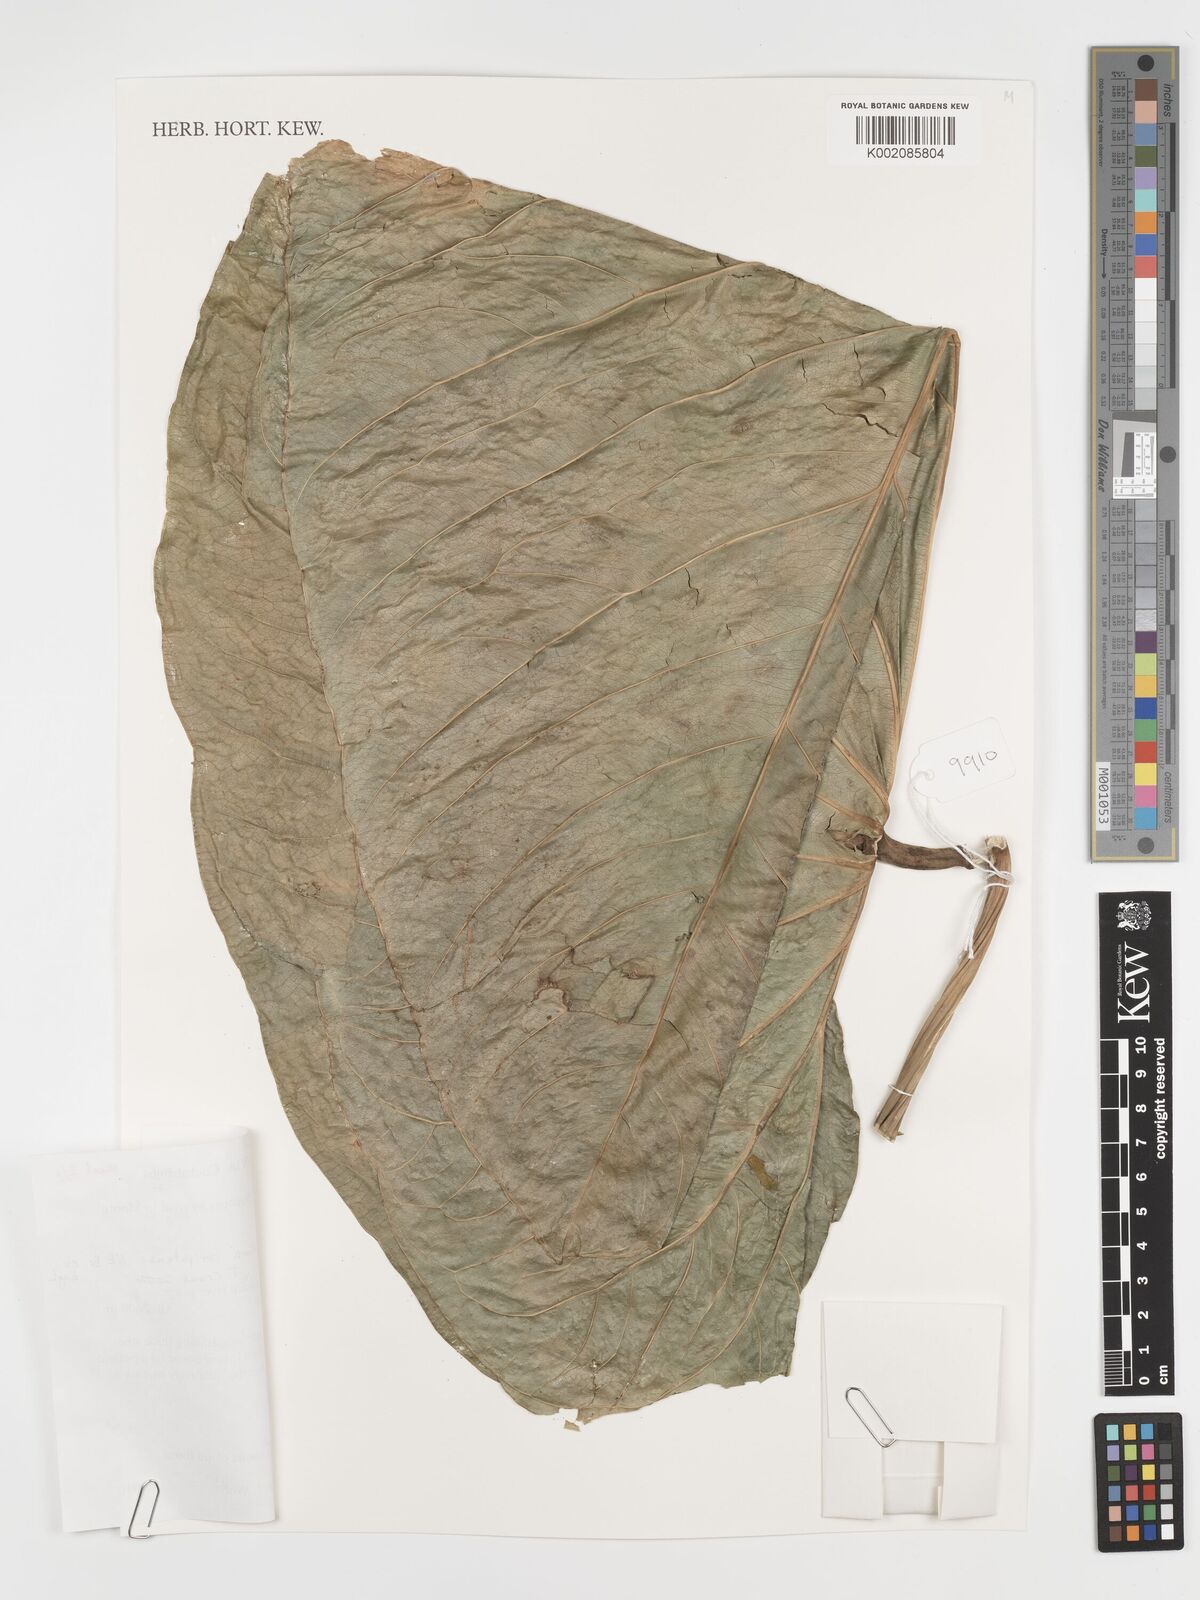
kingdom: Plantae
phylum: Tracheophyta
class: Liliopsida
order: Alismatales
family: Araceae
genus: Anthurium
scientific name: Anthurium coripatense
